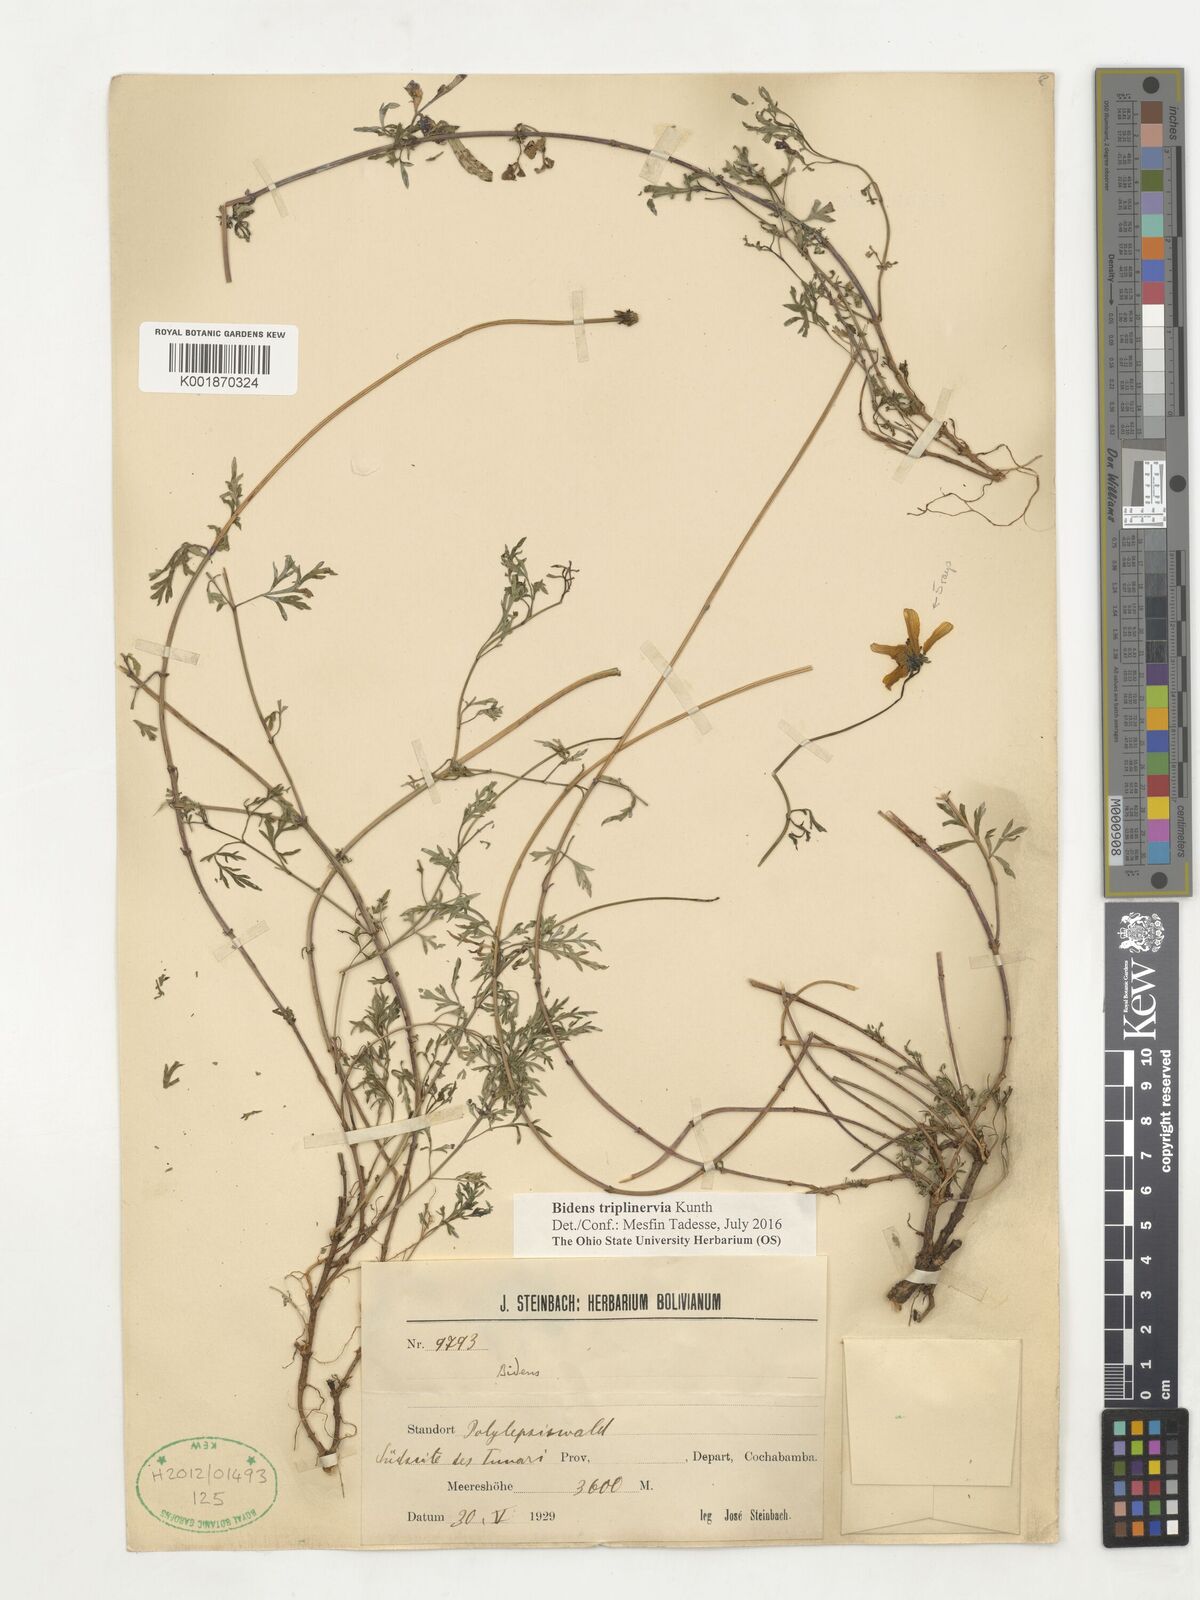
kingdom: Plantae
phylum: Tracheophyta
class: Magnoliopsida
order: Asterales
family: Asteraceae
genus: Bidens
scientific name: Bidens triplinervia
